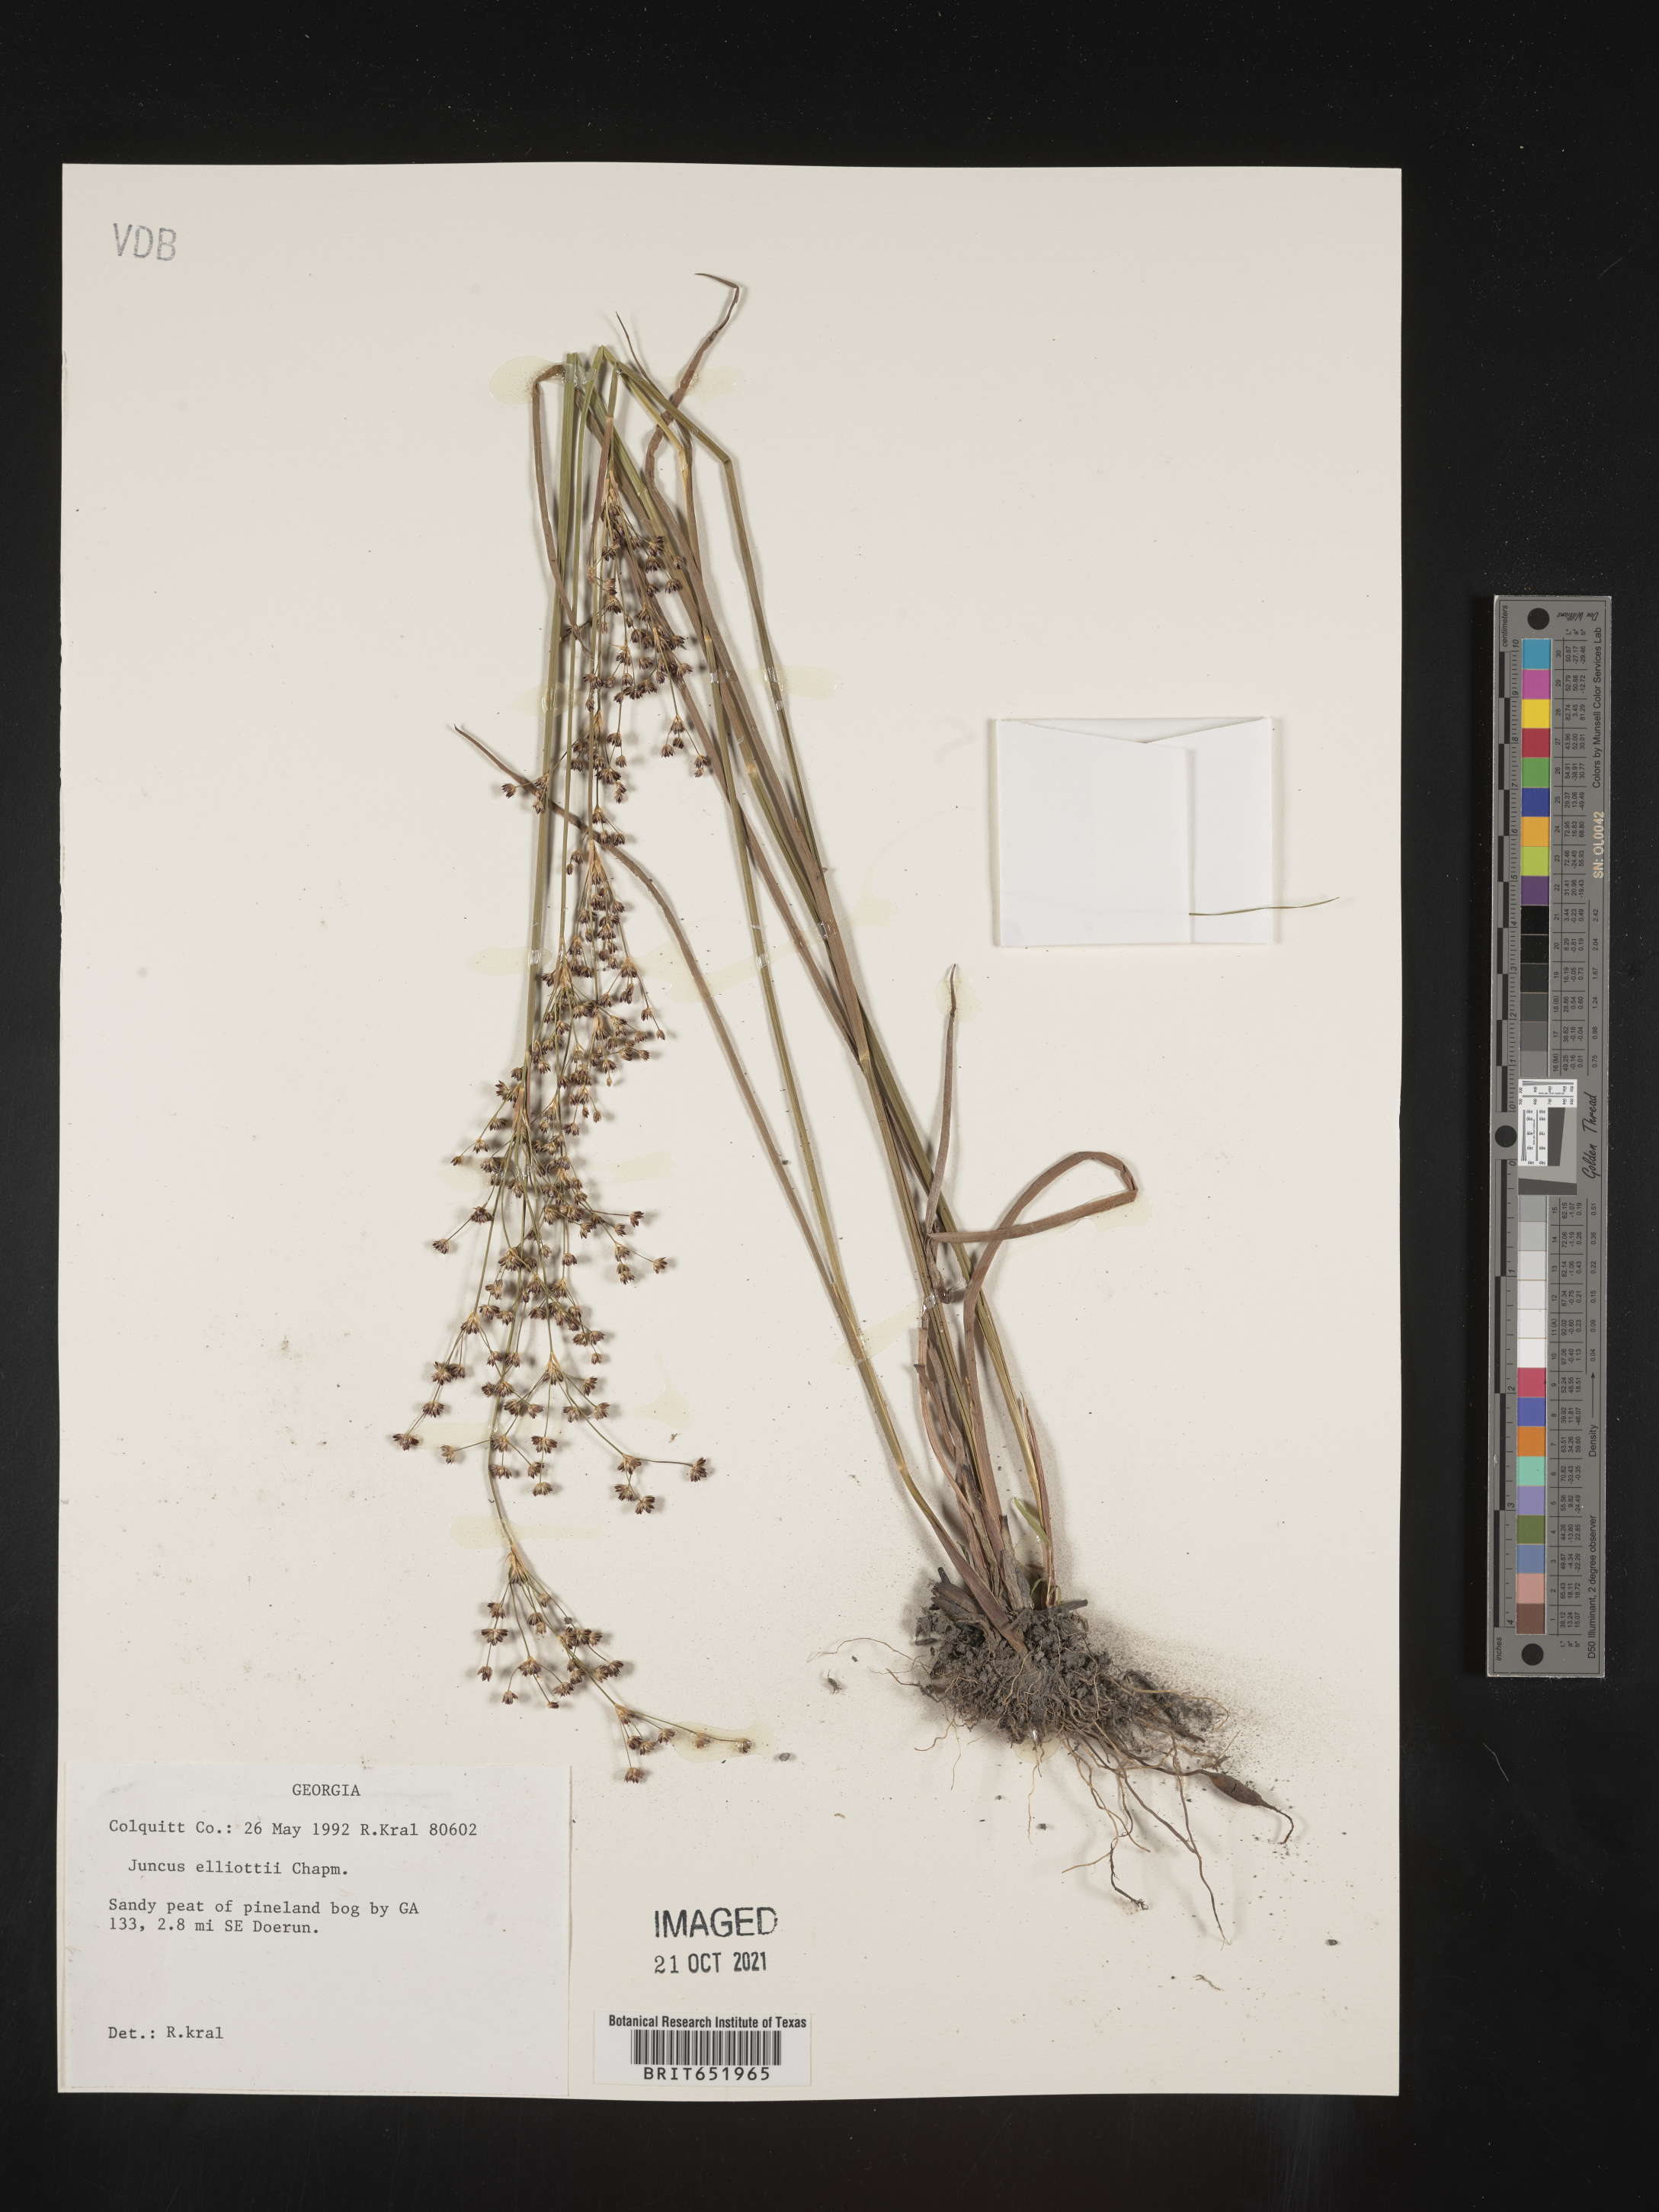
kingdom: Plantae
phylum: Tracheophyta
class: Liliopsida
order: Poales
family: Juncaceae
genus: Juncus
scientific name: Juncus elliottii
